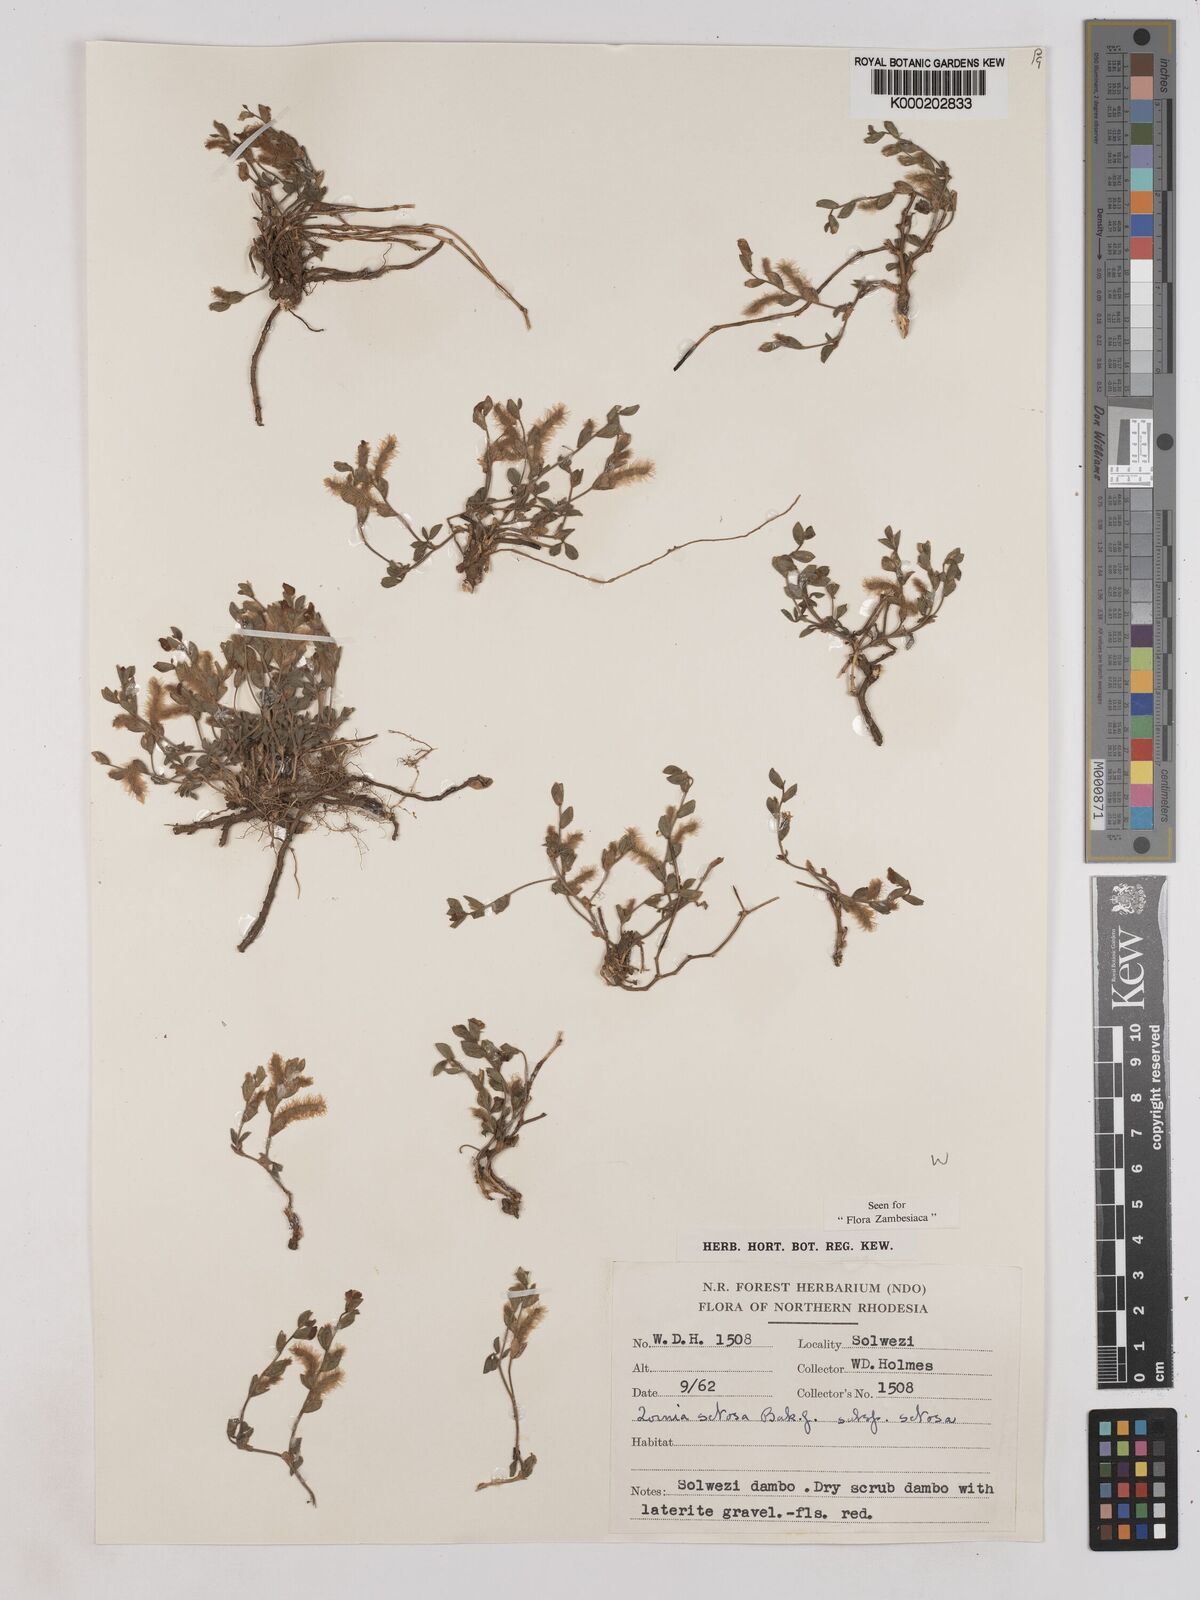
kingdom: Plantae
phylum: Tracheophyta
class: Magnoliopsida
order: Fabales
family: Fabaceae
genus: Zornia
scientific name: Zornia setosa
